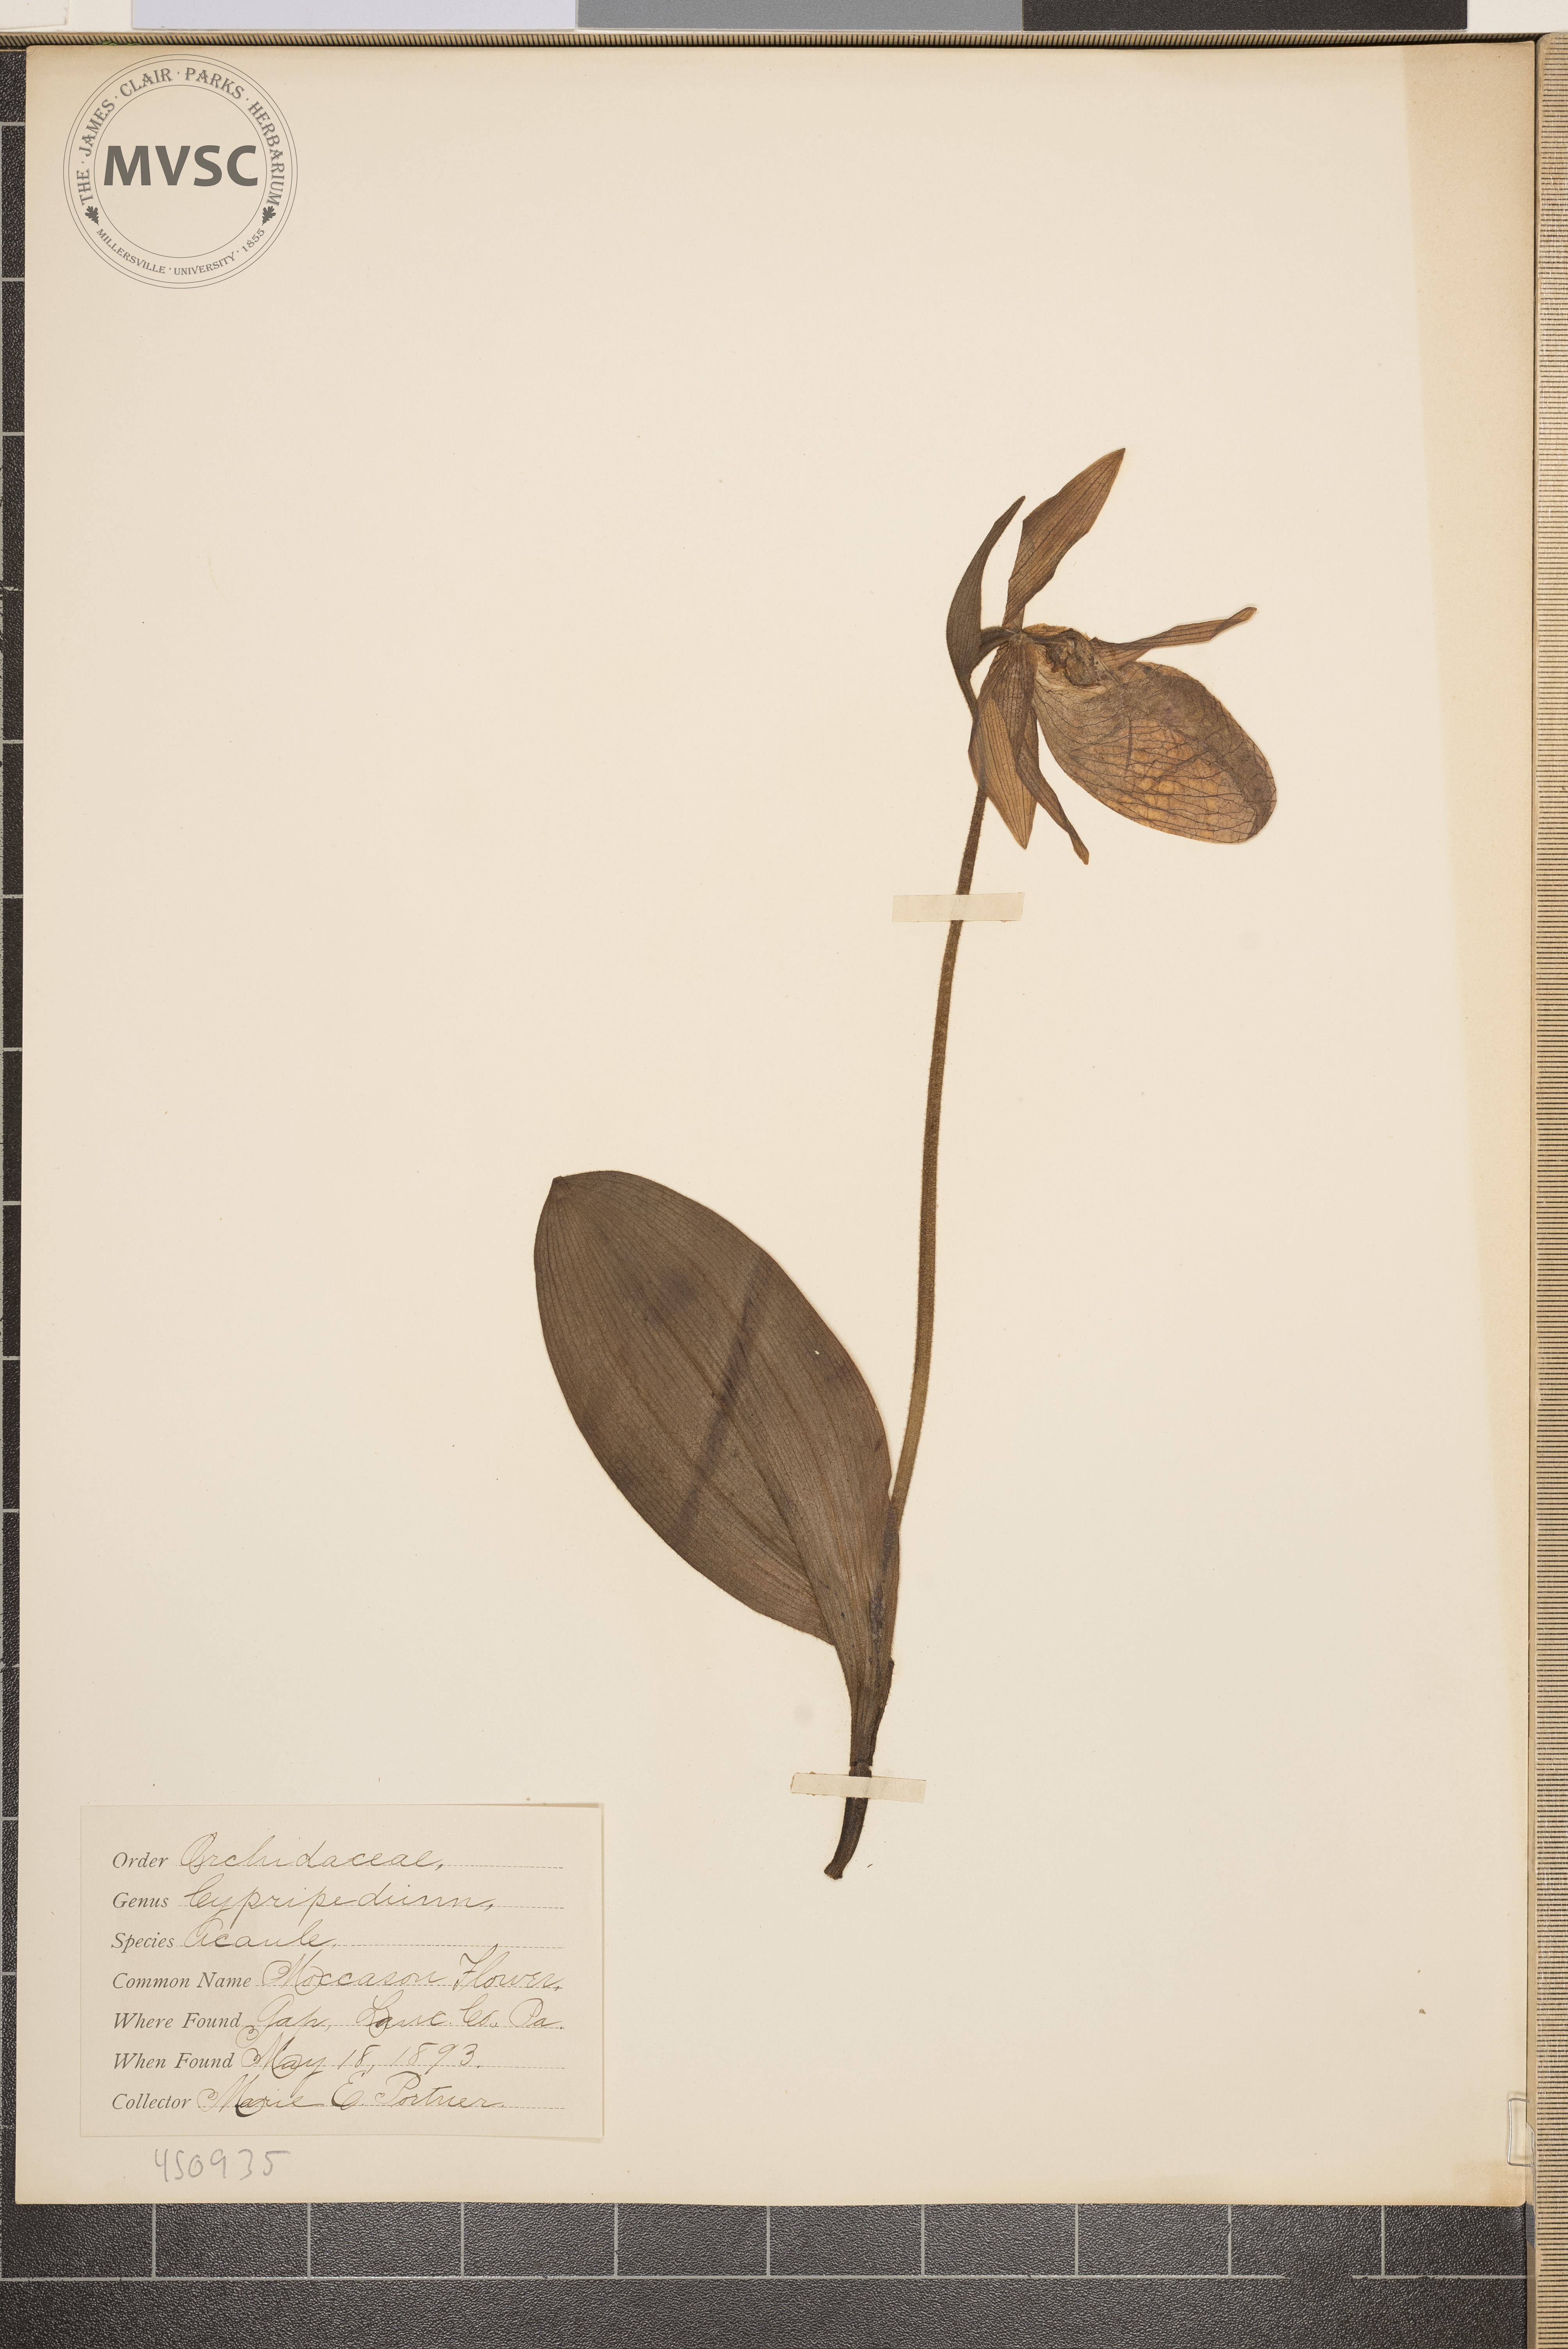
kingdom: Plantae
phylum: Tracheophyta
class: Liliopsida
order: Asparagales
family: Orchidaceae
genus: Cypripedium
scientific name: Cypripedium acaule
